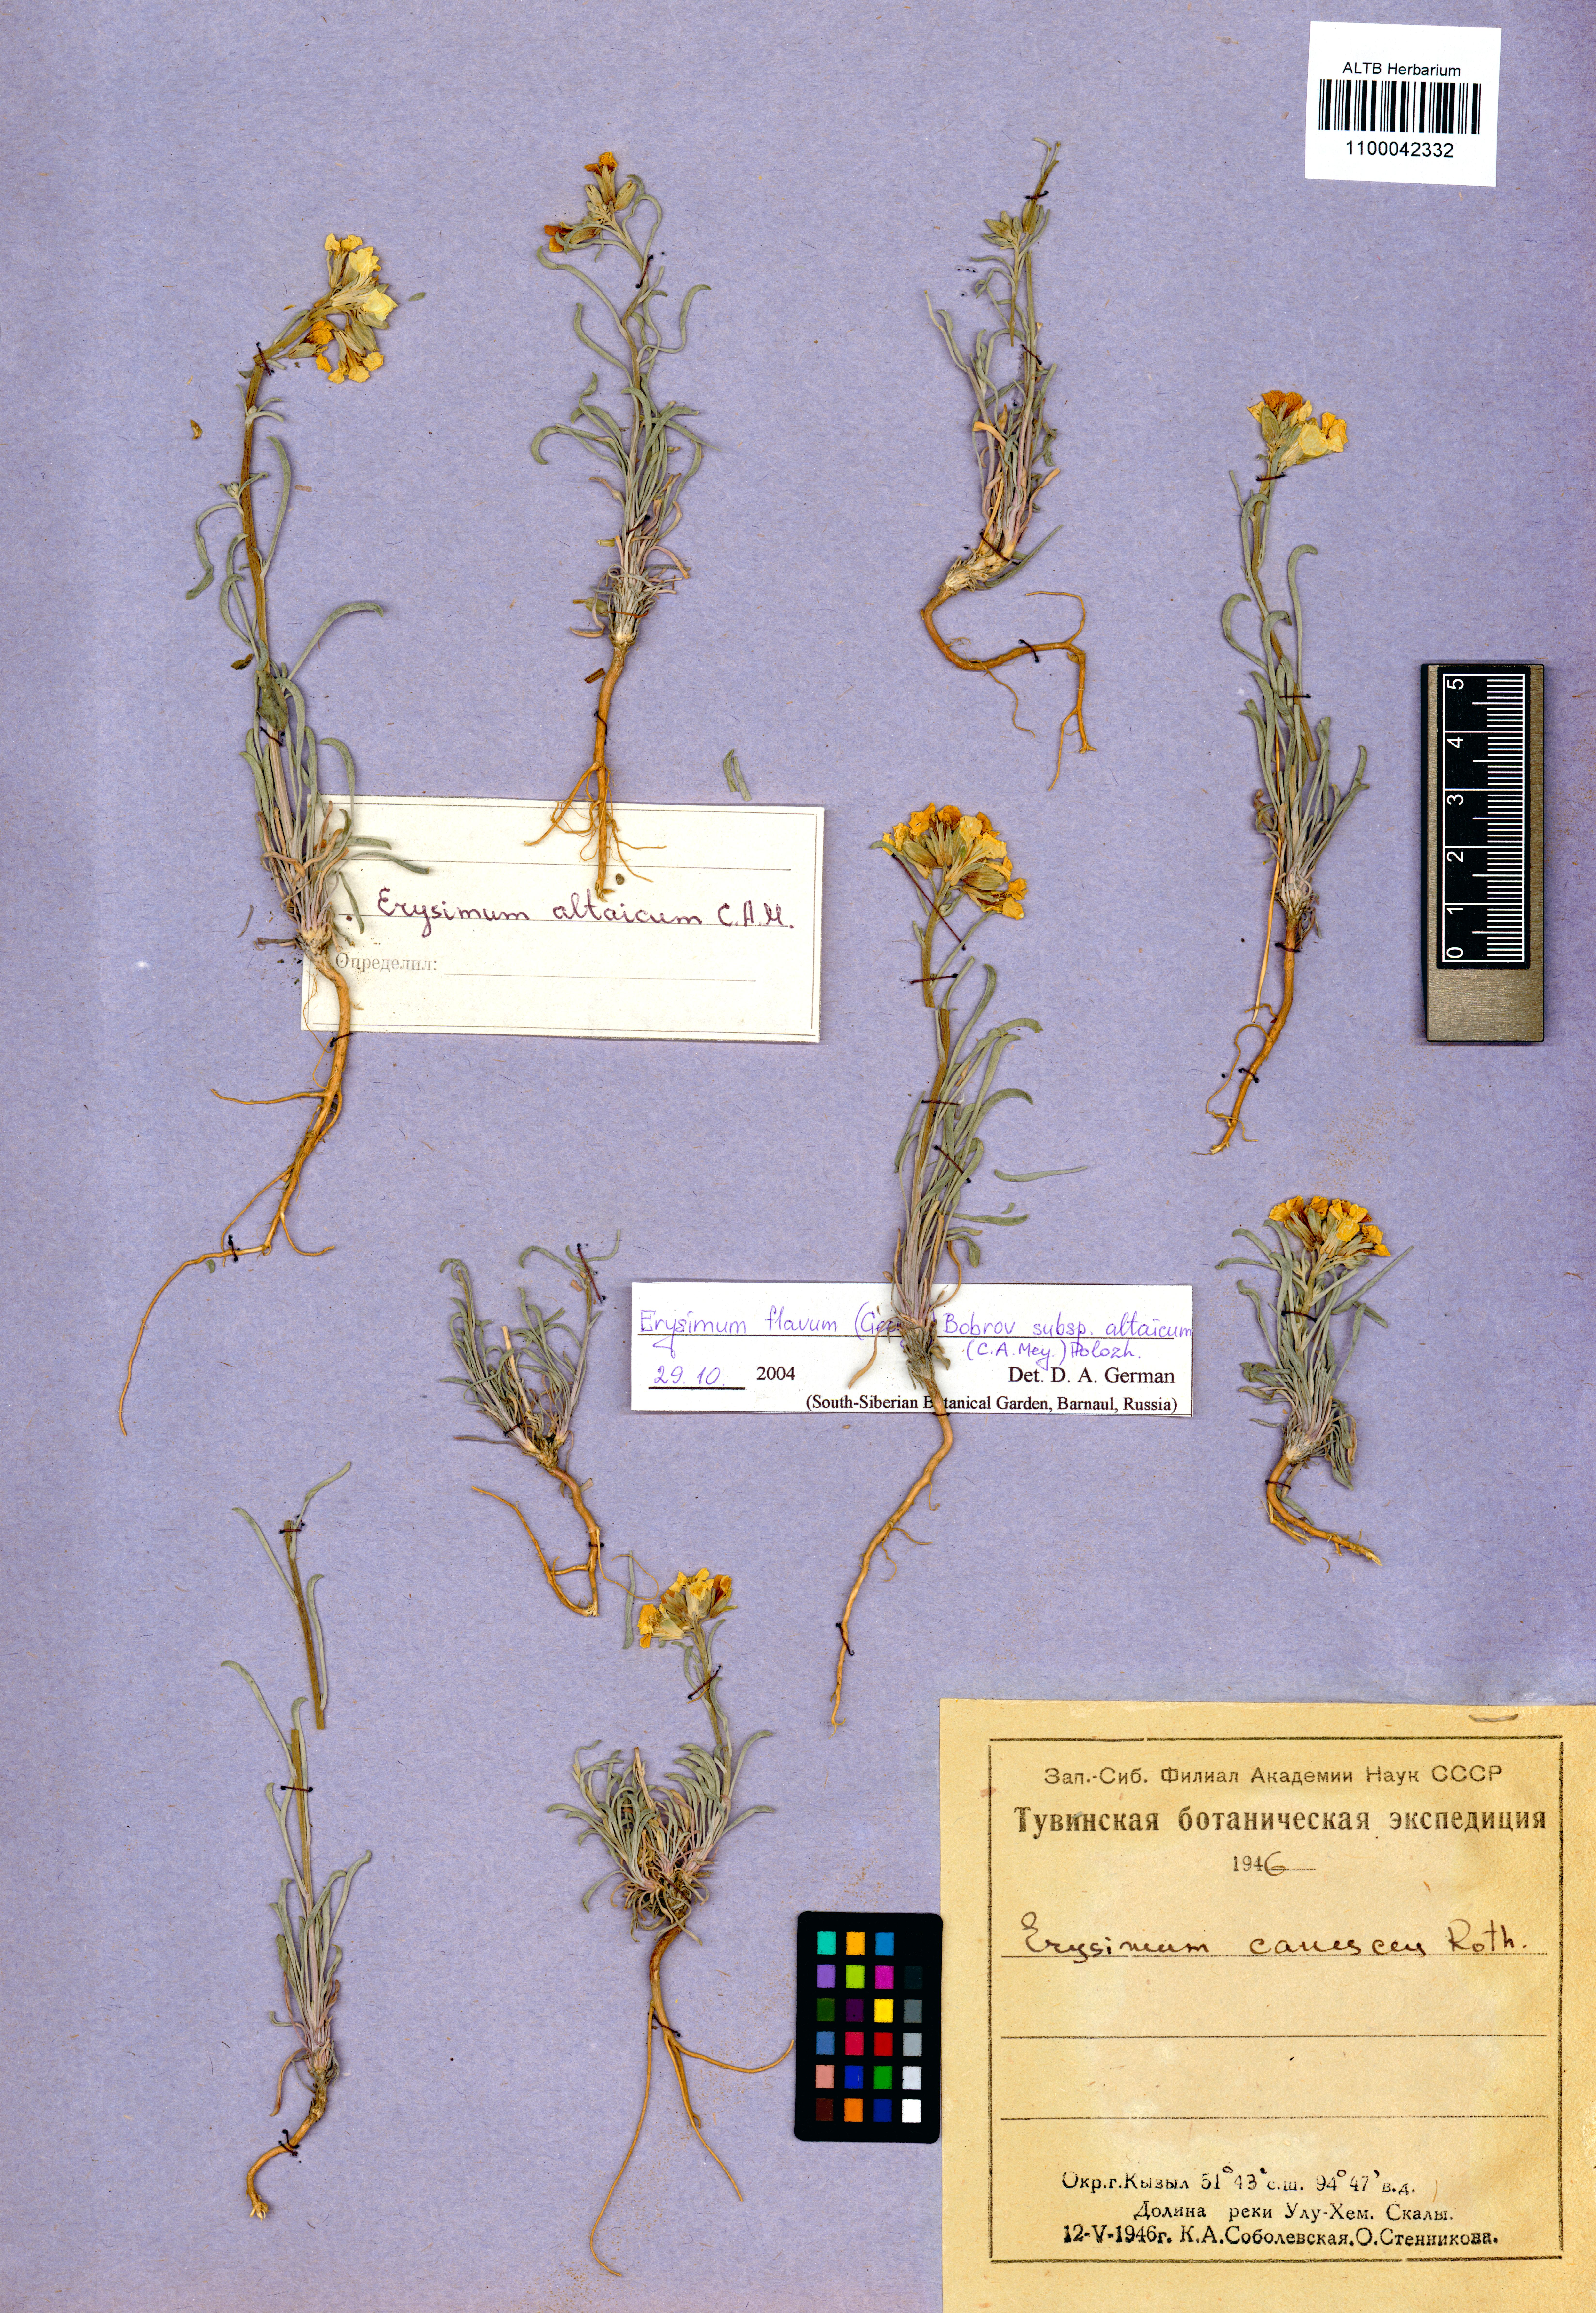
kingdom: Plantae
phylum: Tracheophyta
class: Magnoliopsida
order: Brassicales
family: Brassicaceae
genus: Erysimum
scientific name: Erysimum flavum
